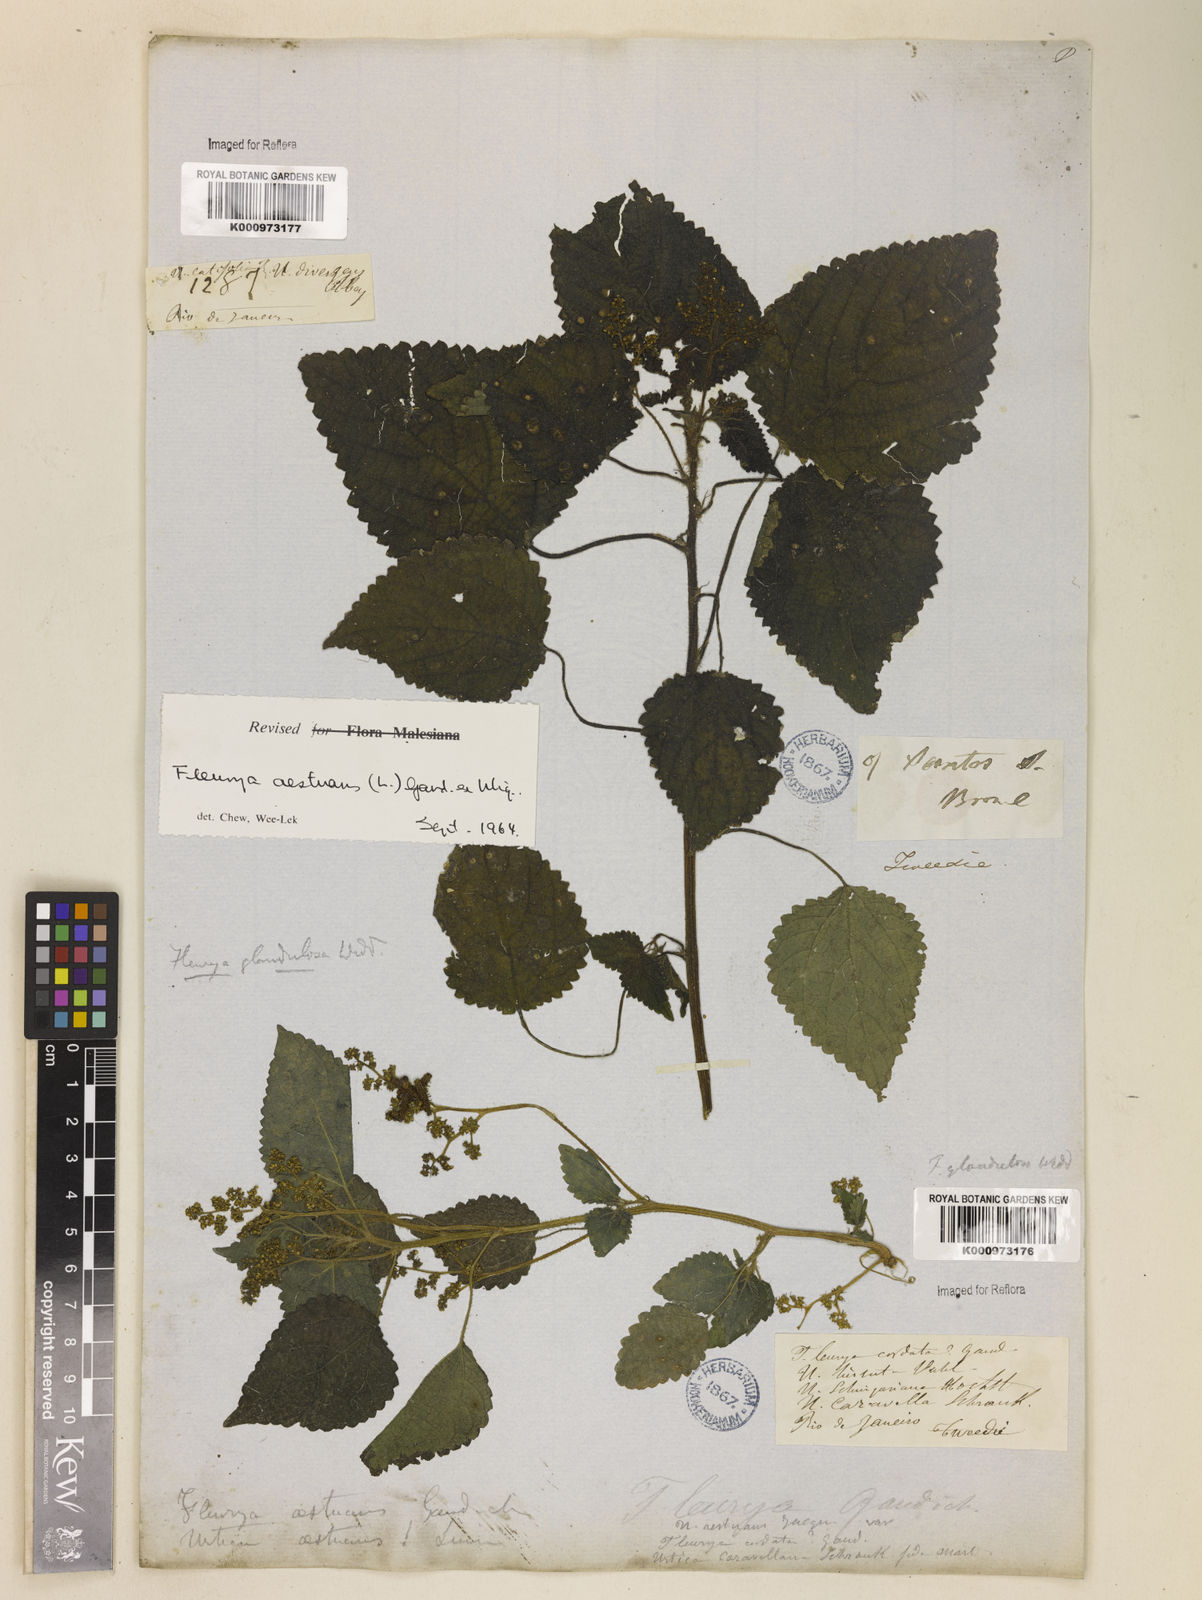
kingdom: Plantae
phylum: Tracheophyta
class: Magnoliopsida
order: Rosales
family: Urticaceae
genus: Laportea
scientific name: Laportea aestuans
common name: West indian woodnettle
